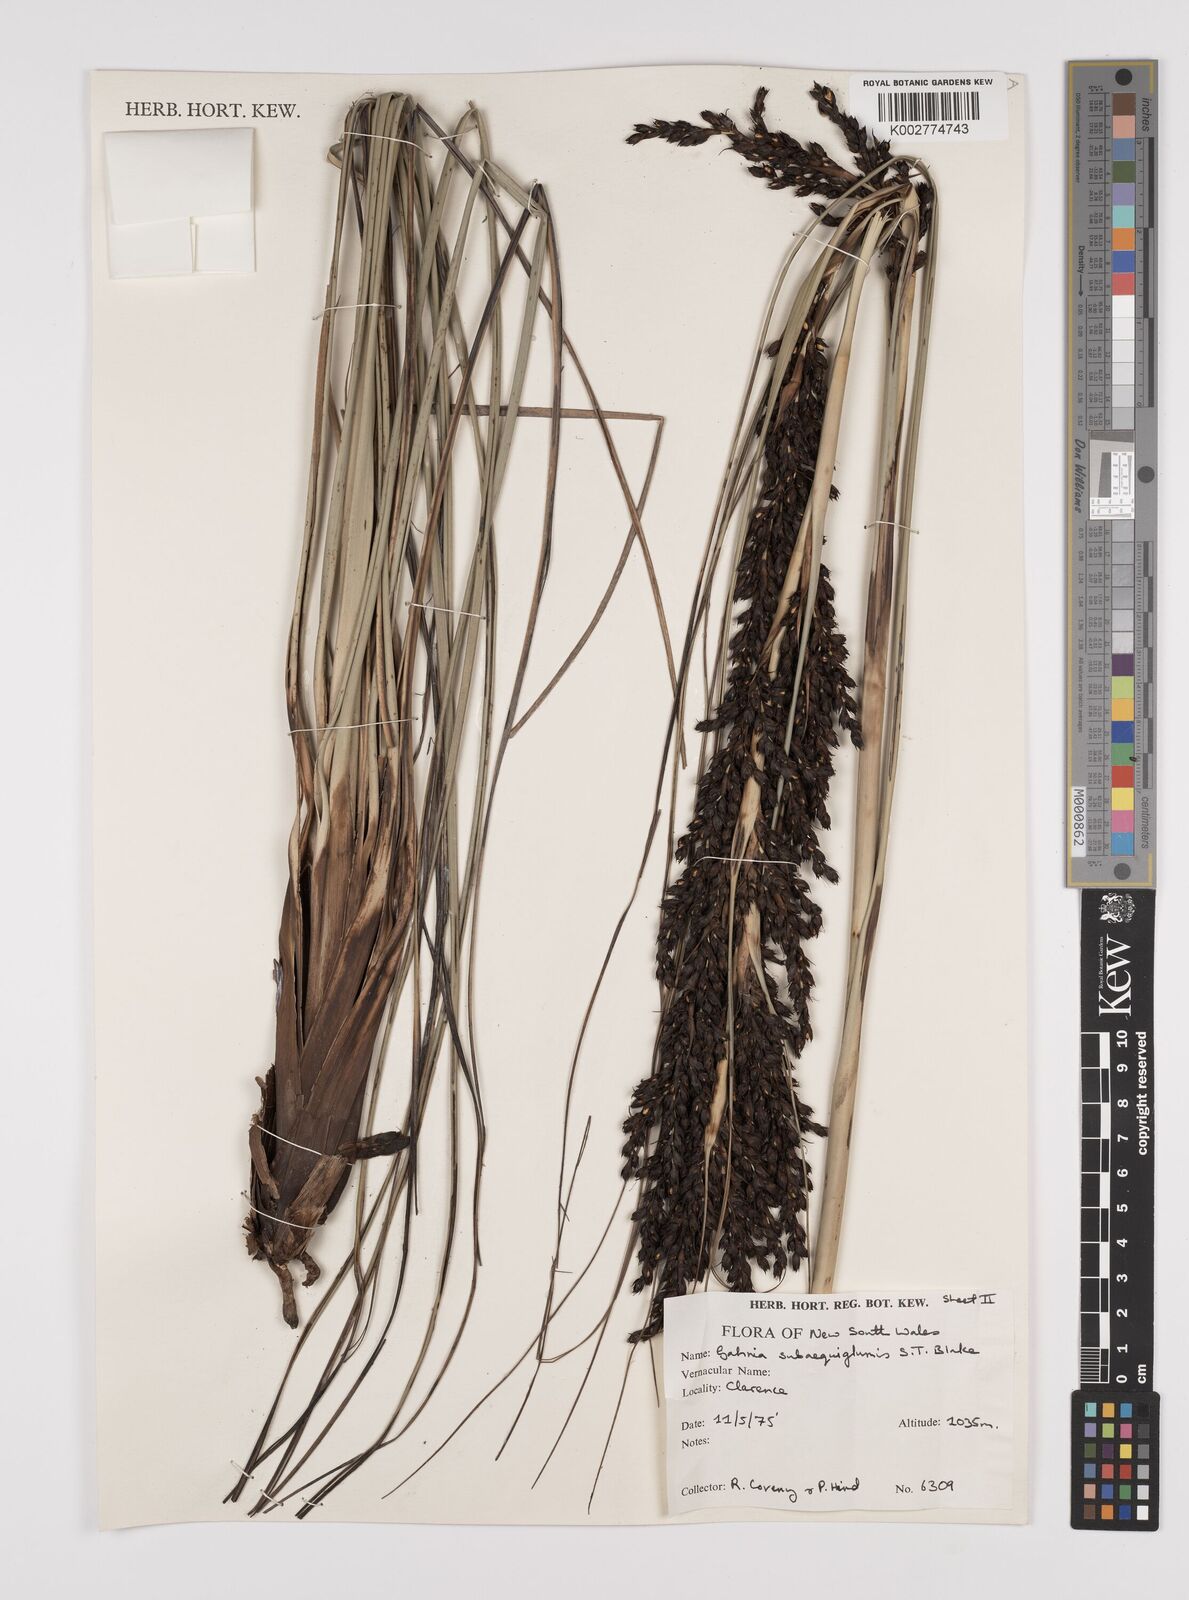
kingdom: Plantae
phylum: Tracheophyta
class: Liliopsida
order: Poales
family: Cyperaceae
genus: Gahnia
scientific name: Gahnia subaequiglumis
